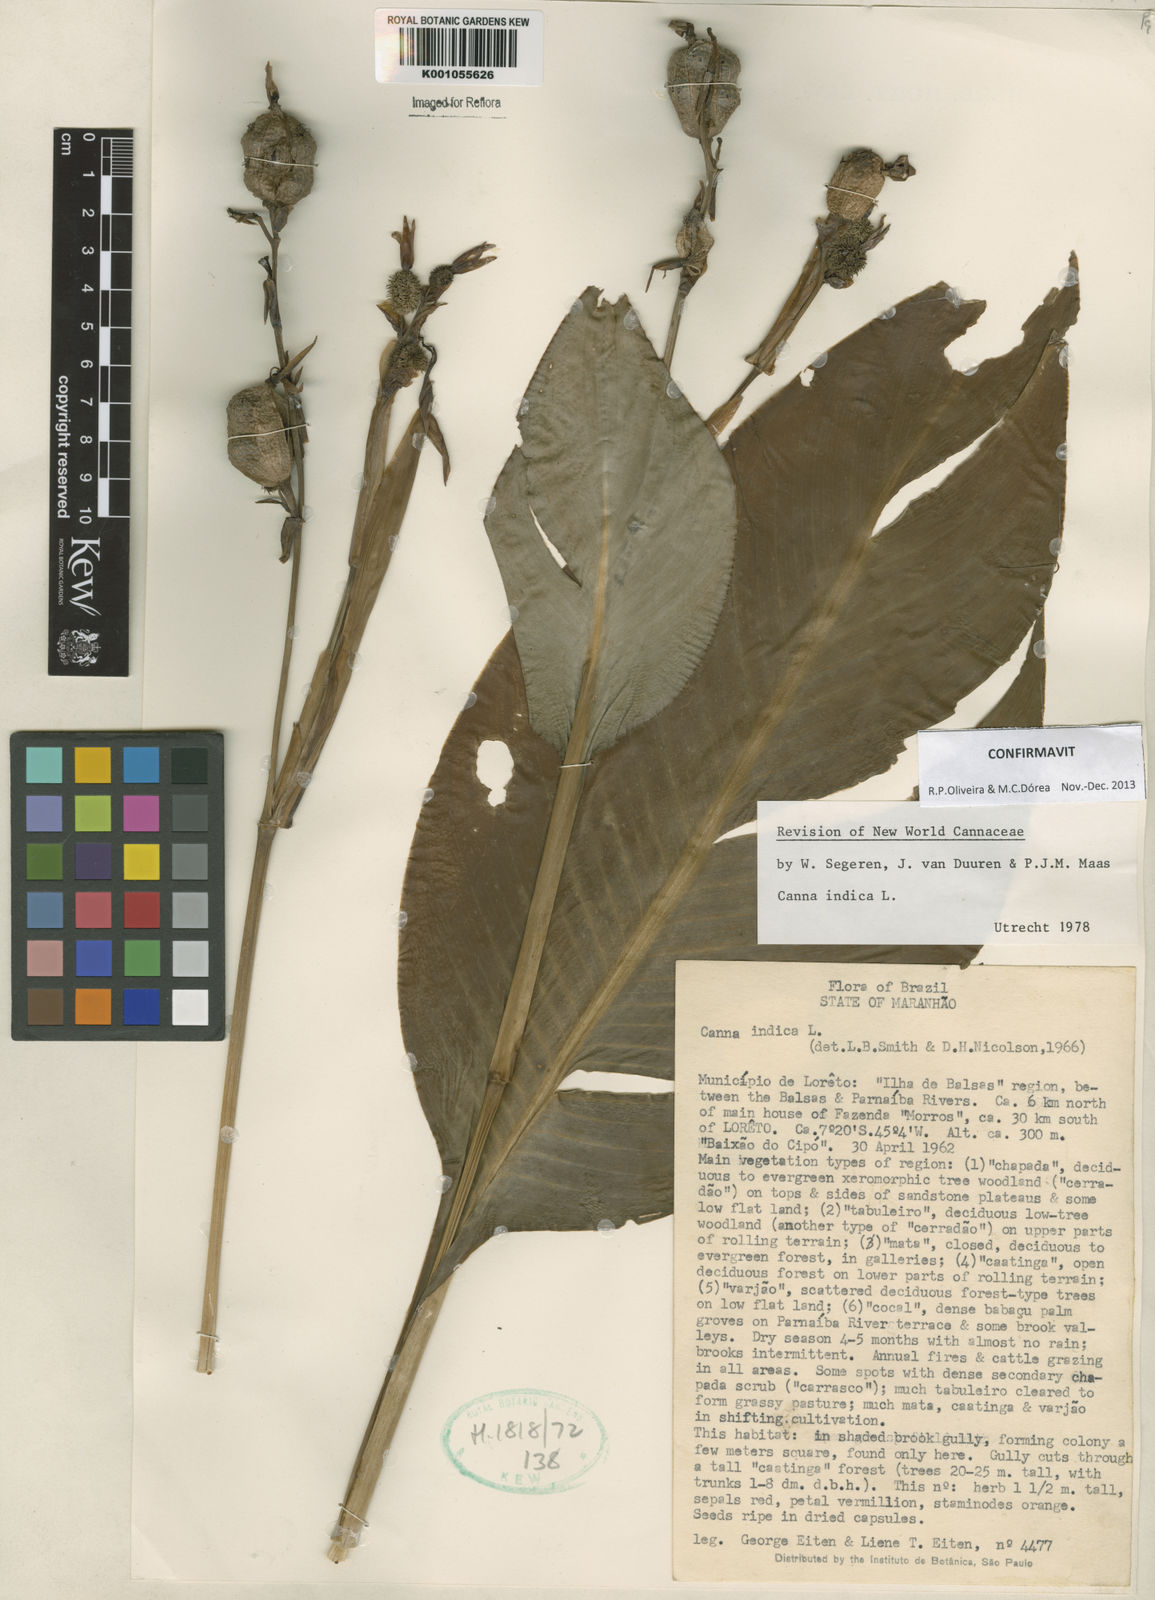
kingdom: Plantae
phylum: Tracheophyta
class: Liliopsida
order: Zingiberales
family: Cannaceae
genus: Canna
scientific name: Canna indica
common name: Indian shot
